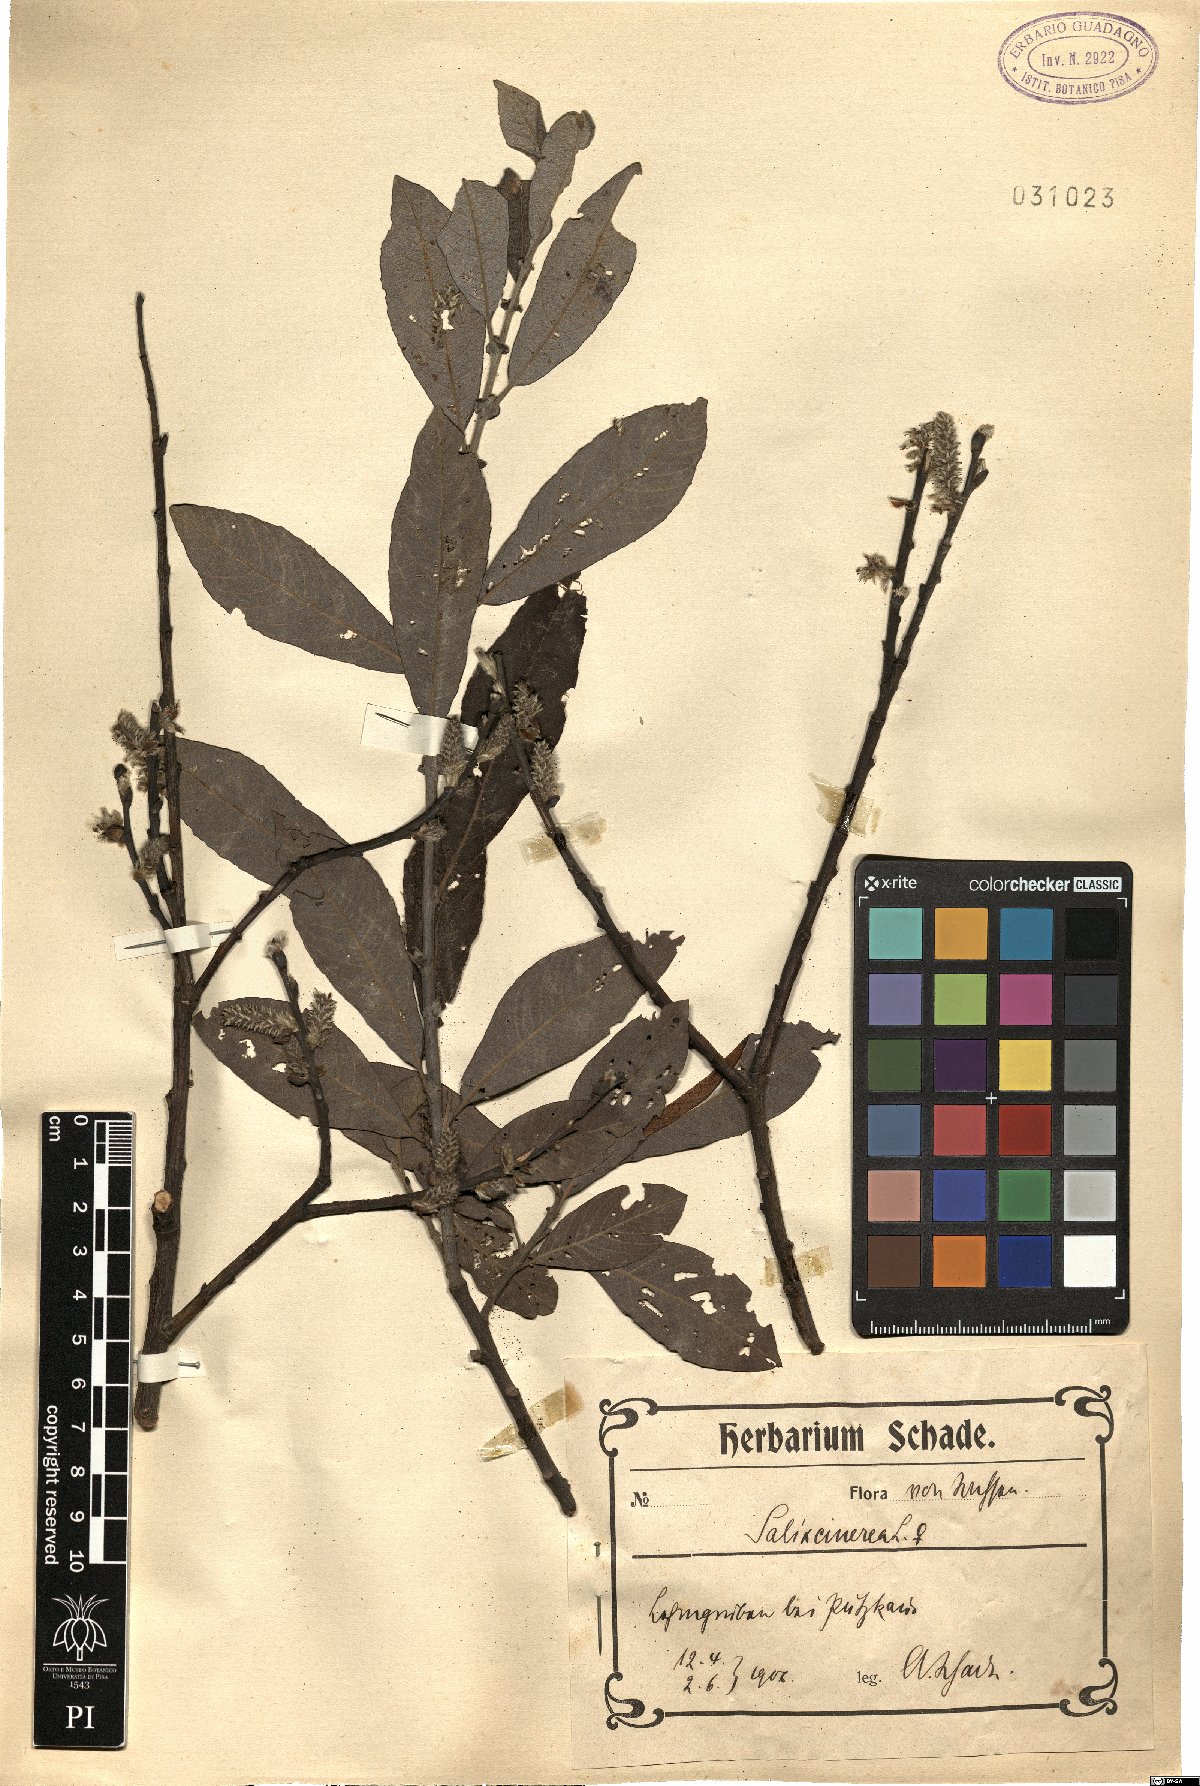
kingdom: Plantae
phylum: Tracheophyta
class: Magnoliopsida
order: Malpighiales
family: Salicaceae
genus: Salix
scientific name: Salix cinerea
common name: Common sallow
